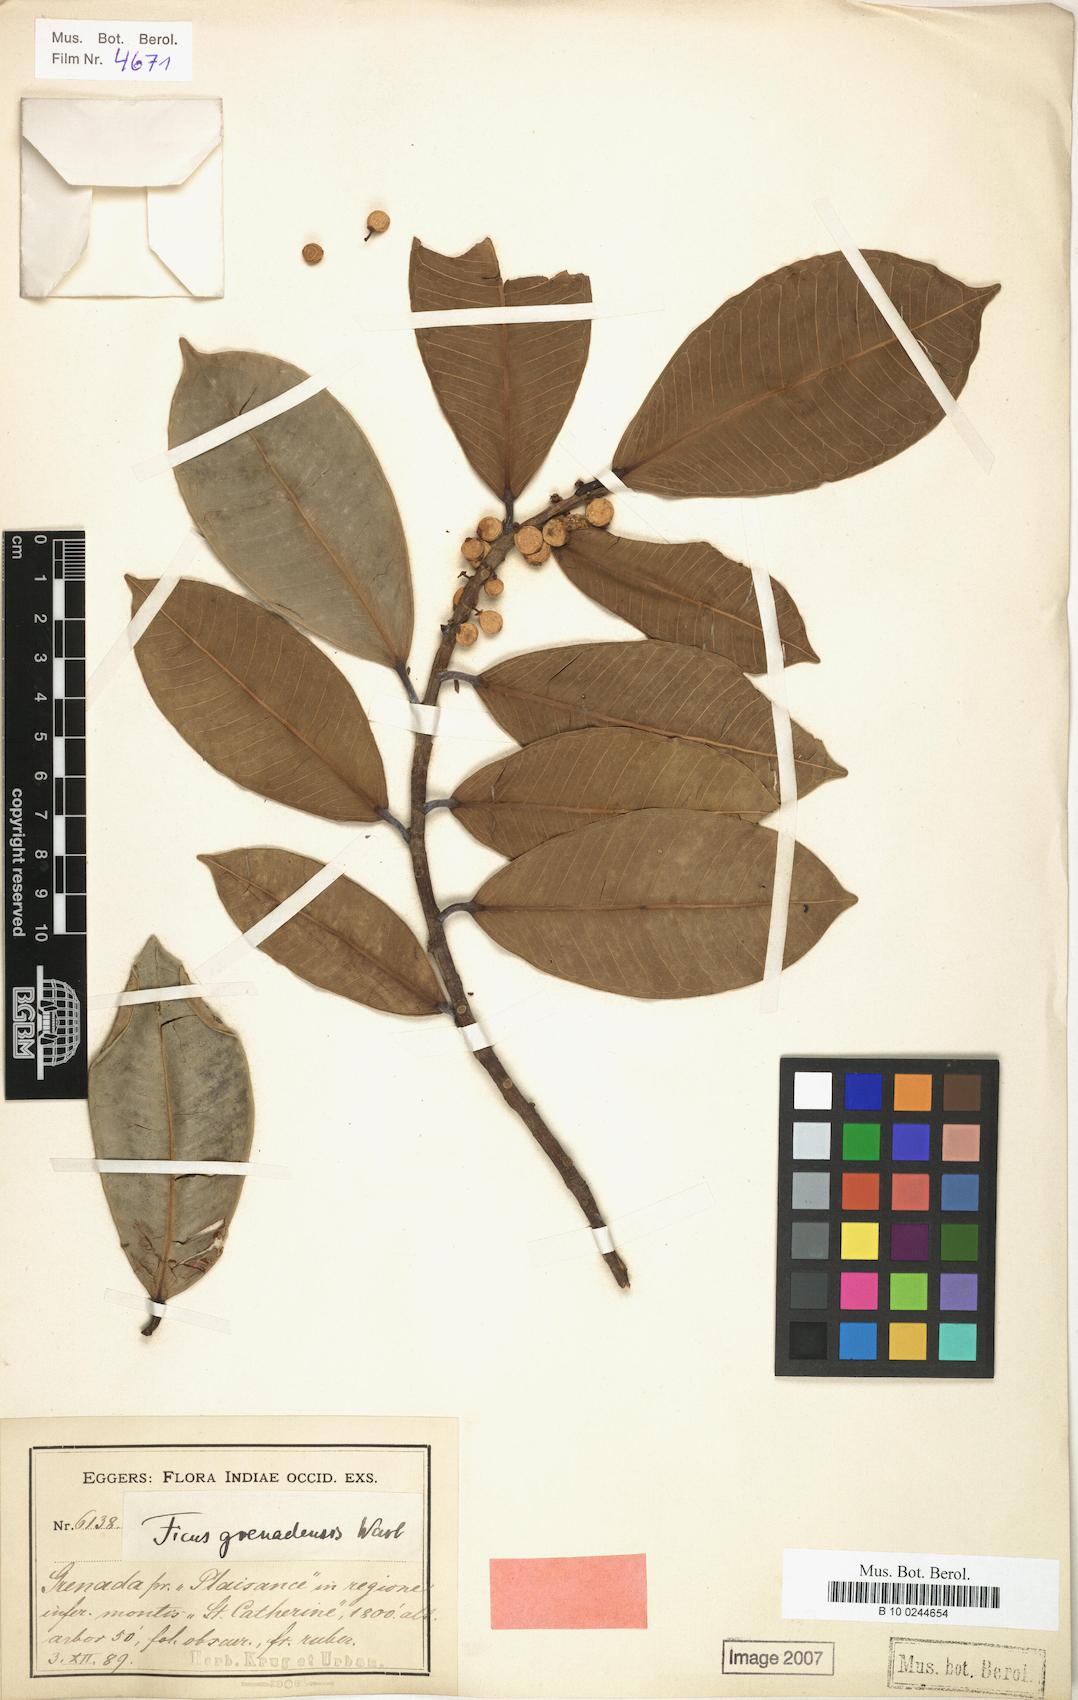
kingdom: Plantae
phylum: Tracheophyta
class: Magnoliopsida
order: Rosales
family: Moraceae
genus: Ficus
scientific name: Ficus guianensis
